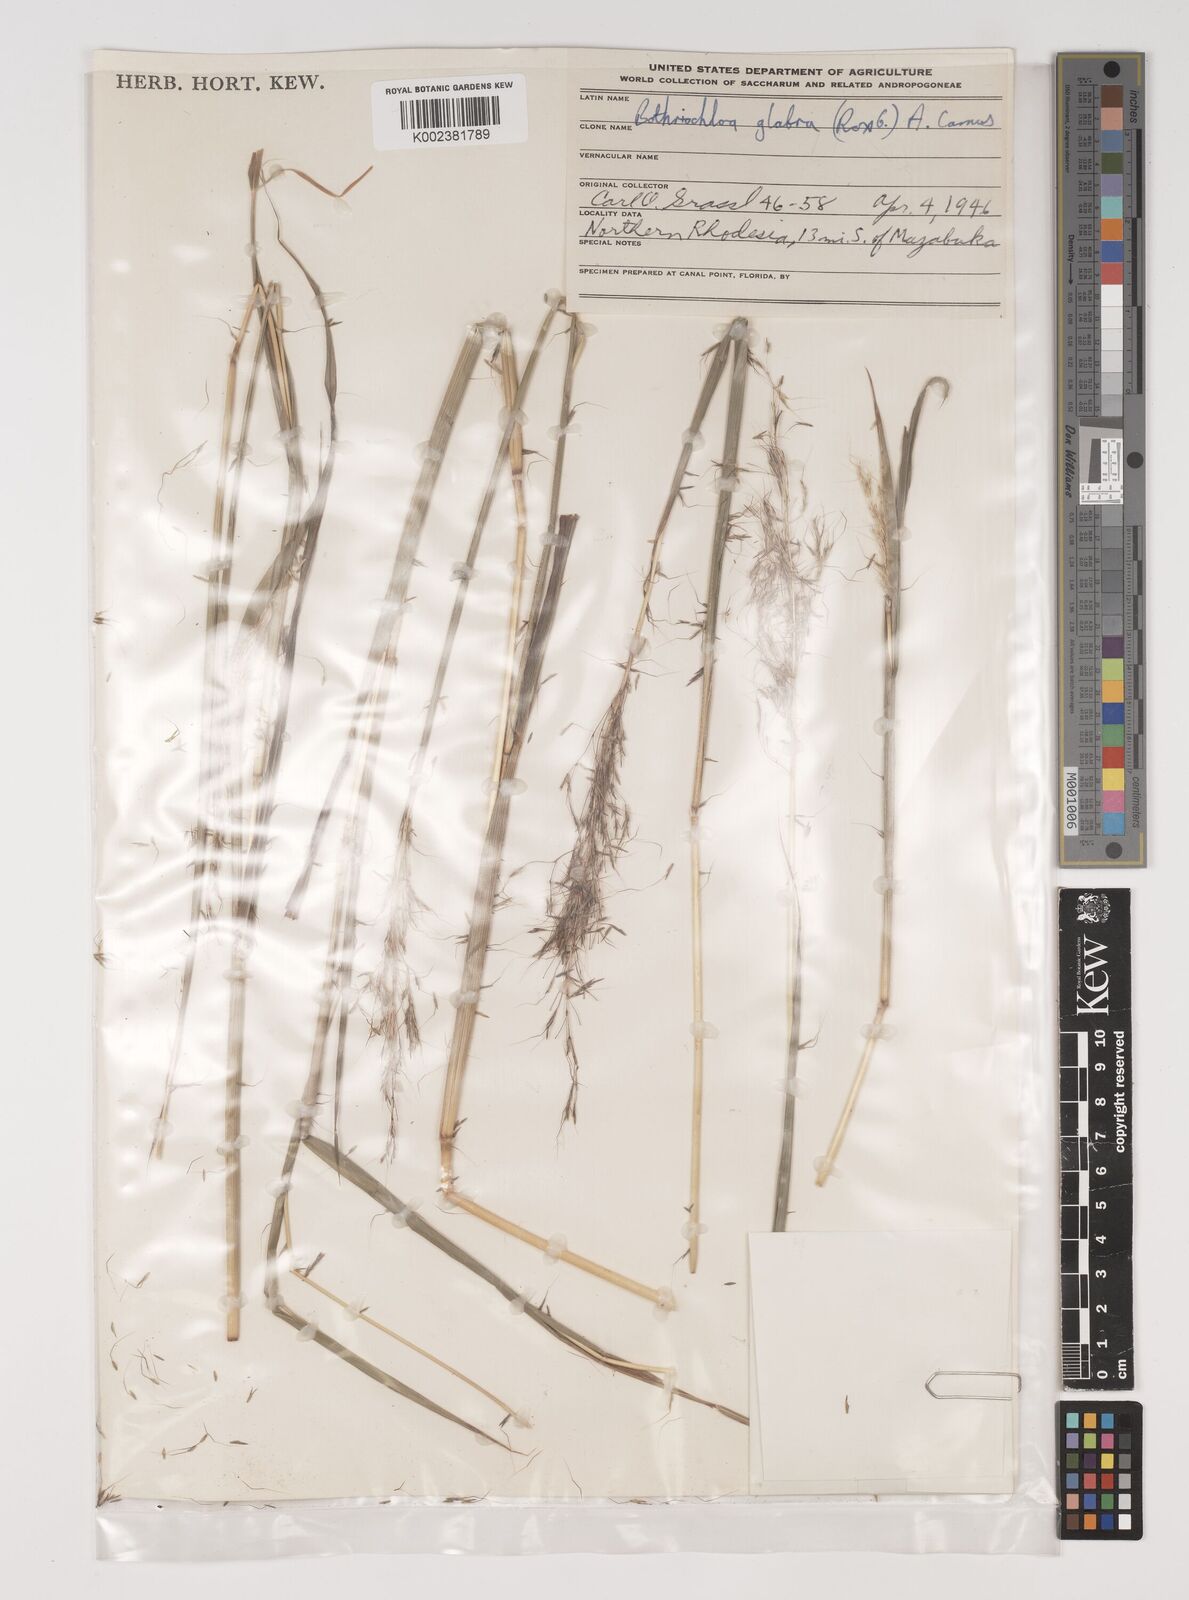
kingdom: Plantae
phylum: Tracheophyta
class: Liliopsida
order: Poales
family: Poaceae
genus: Bothriochloa
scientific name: Bothriochloa bladhii
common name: Caucasian bluestem
